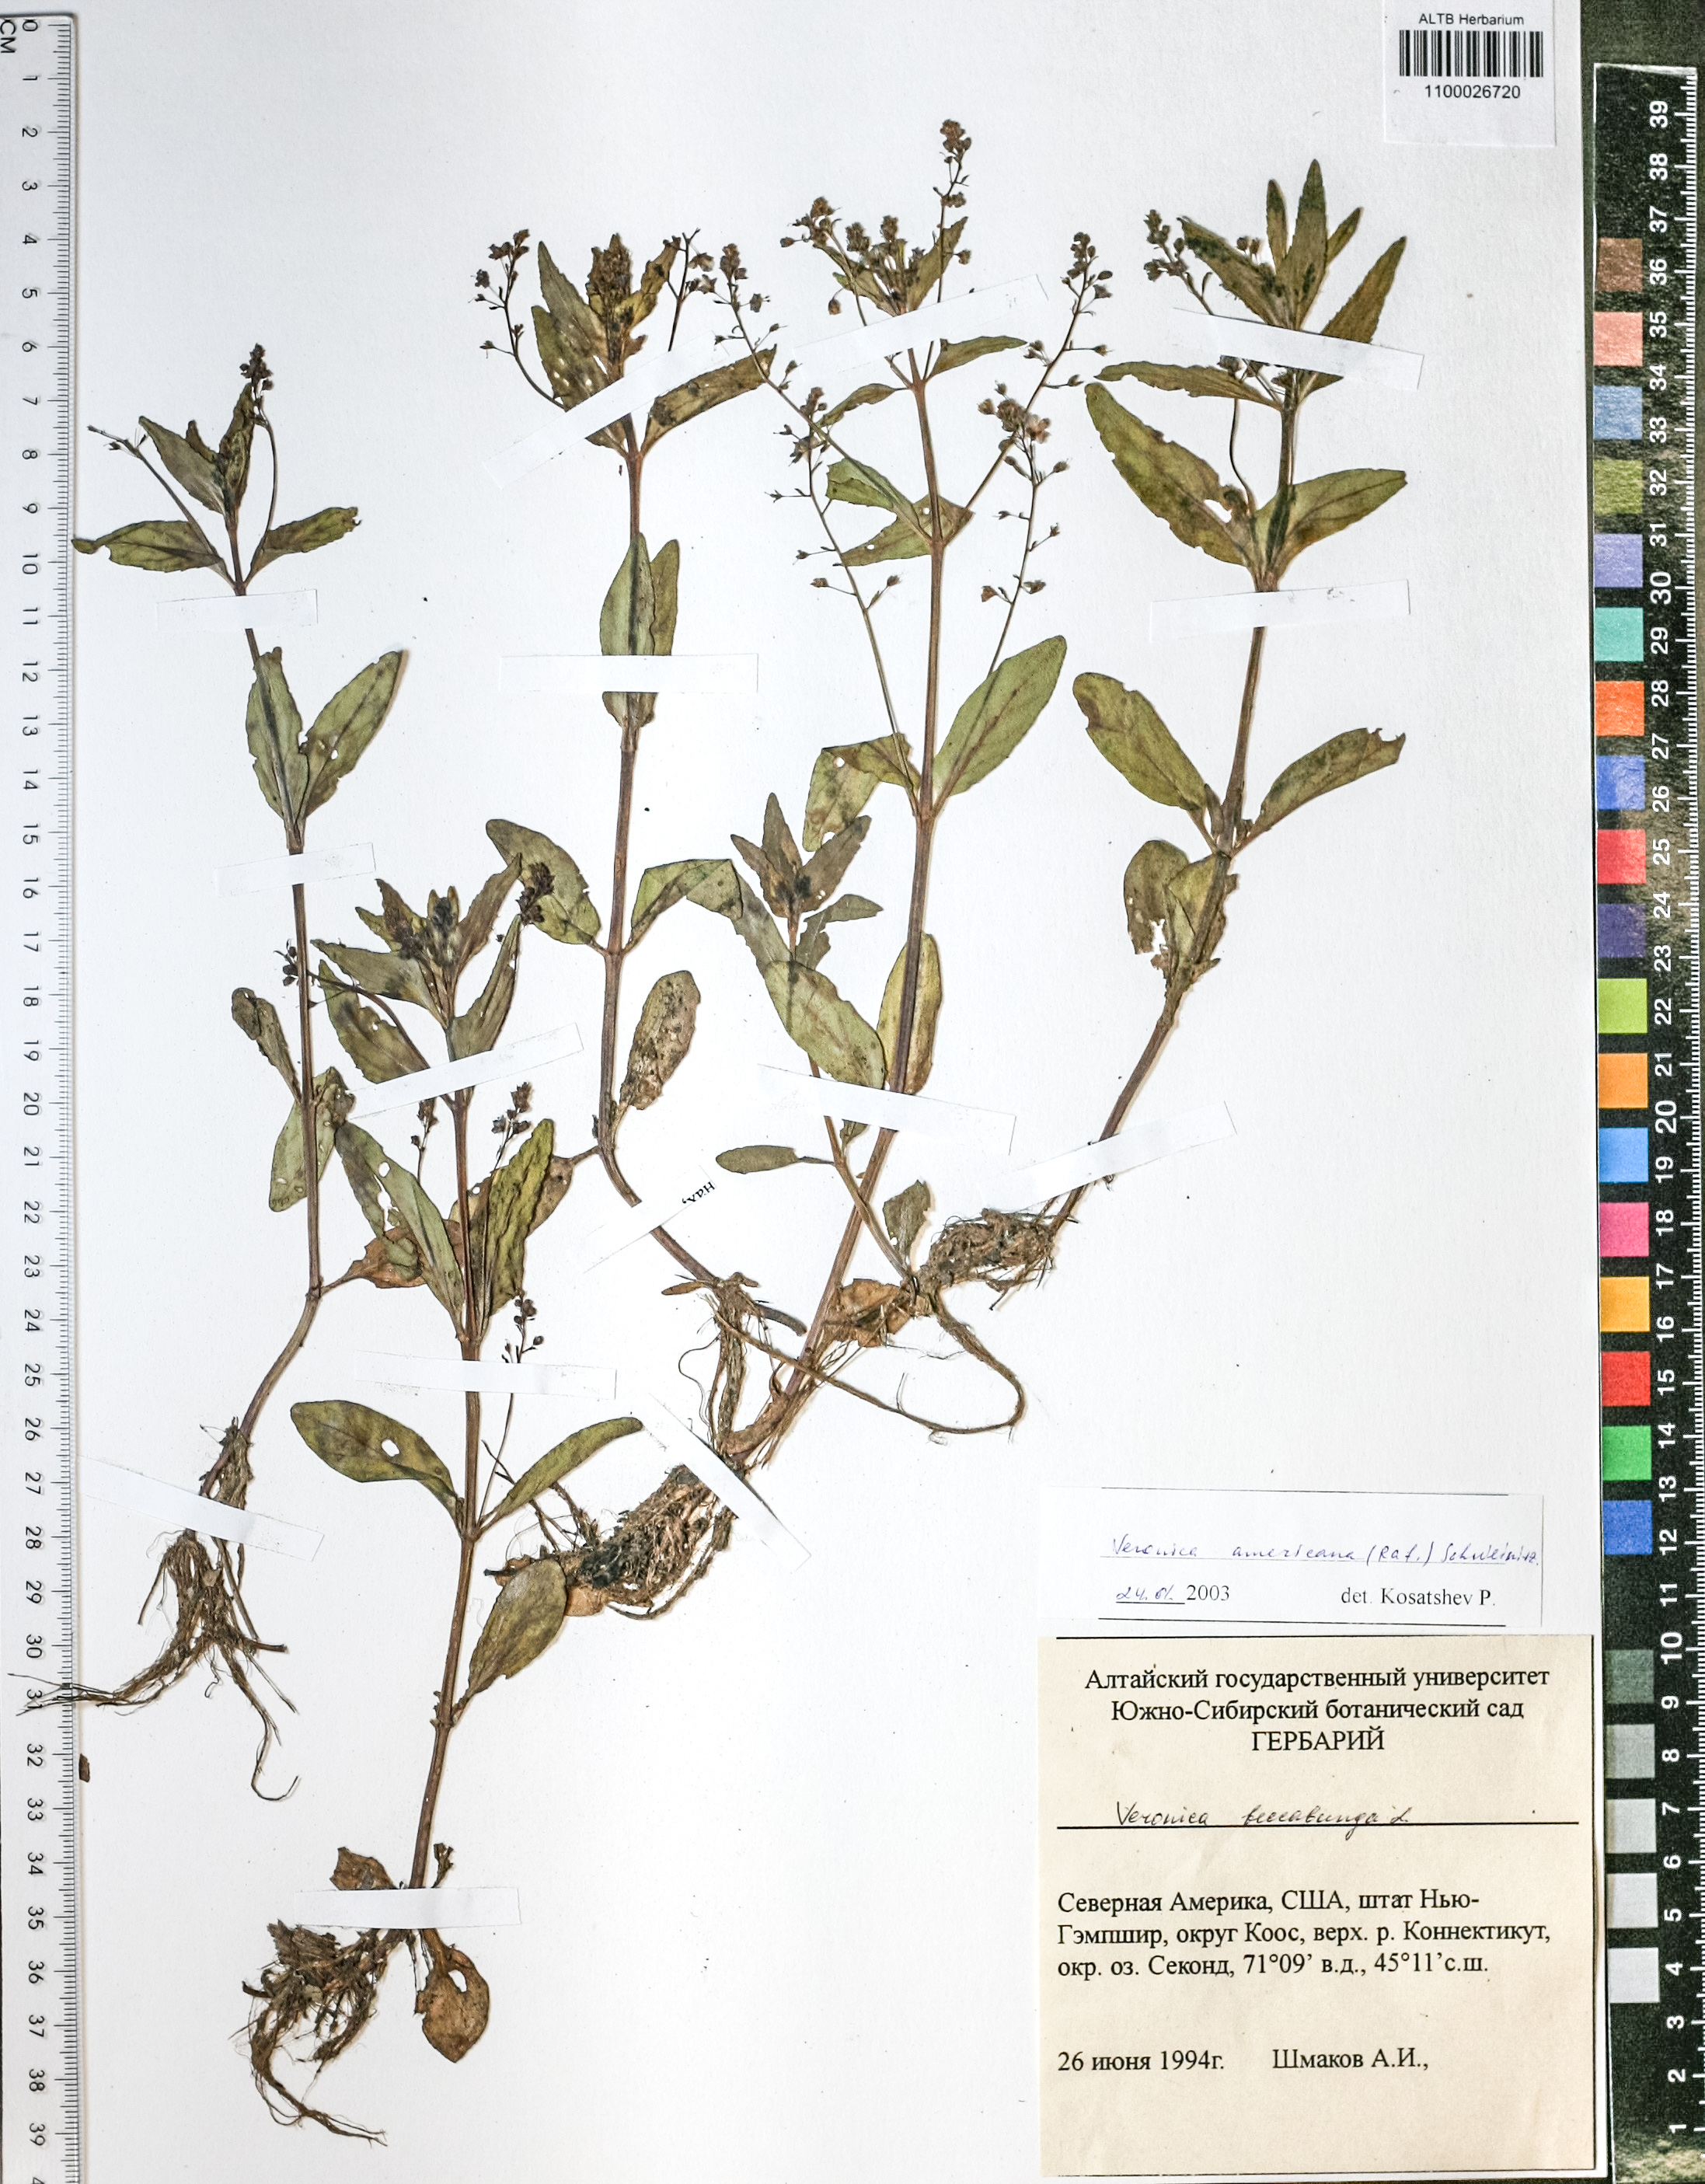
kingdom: Plantae
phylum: Tracheophyta
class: Magnoliopsida
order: Lamiales
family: Plantaginaceae
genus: Veronica
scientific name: Veronica beccabunga
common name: Brooklime
